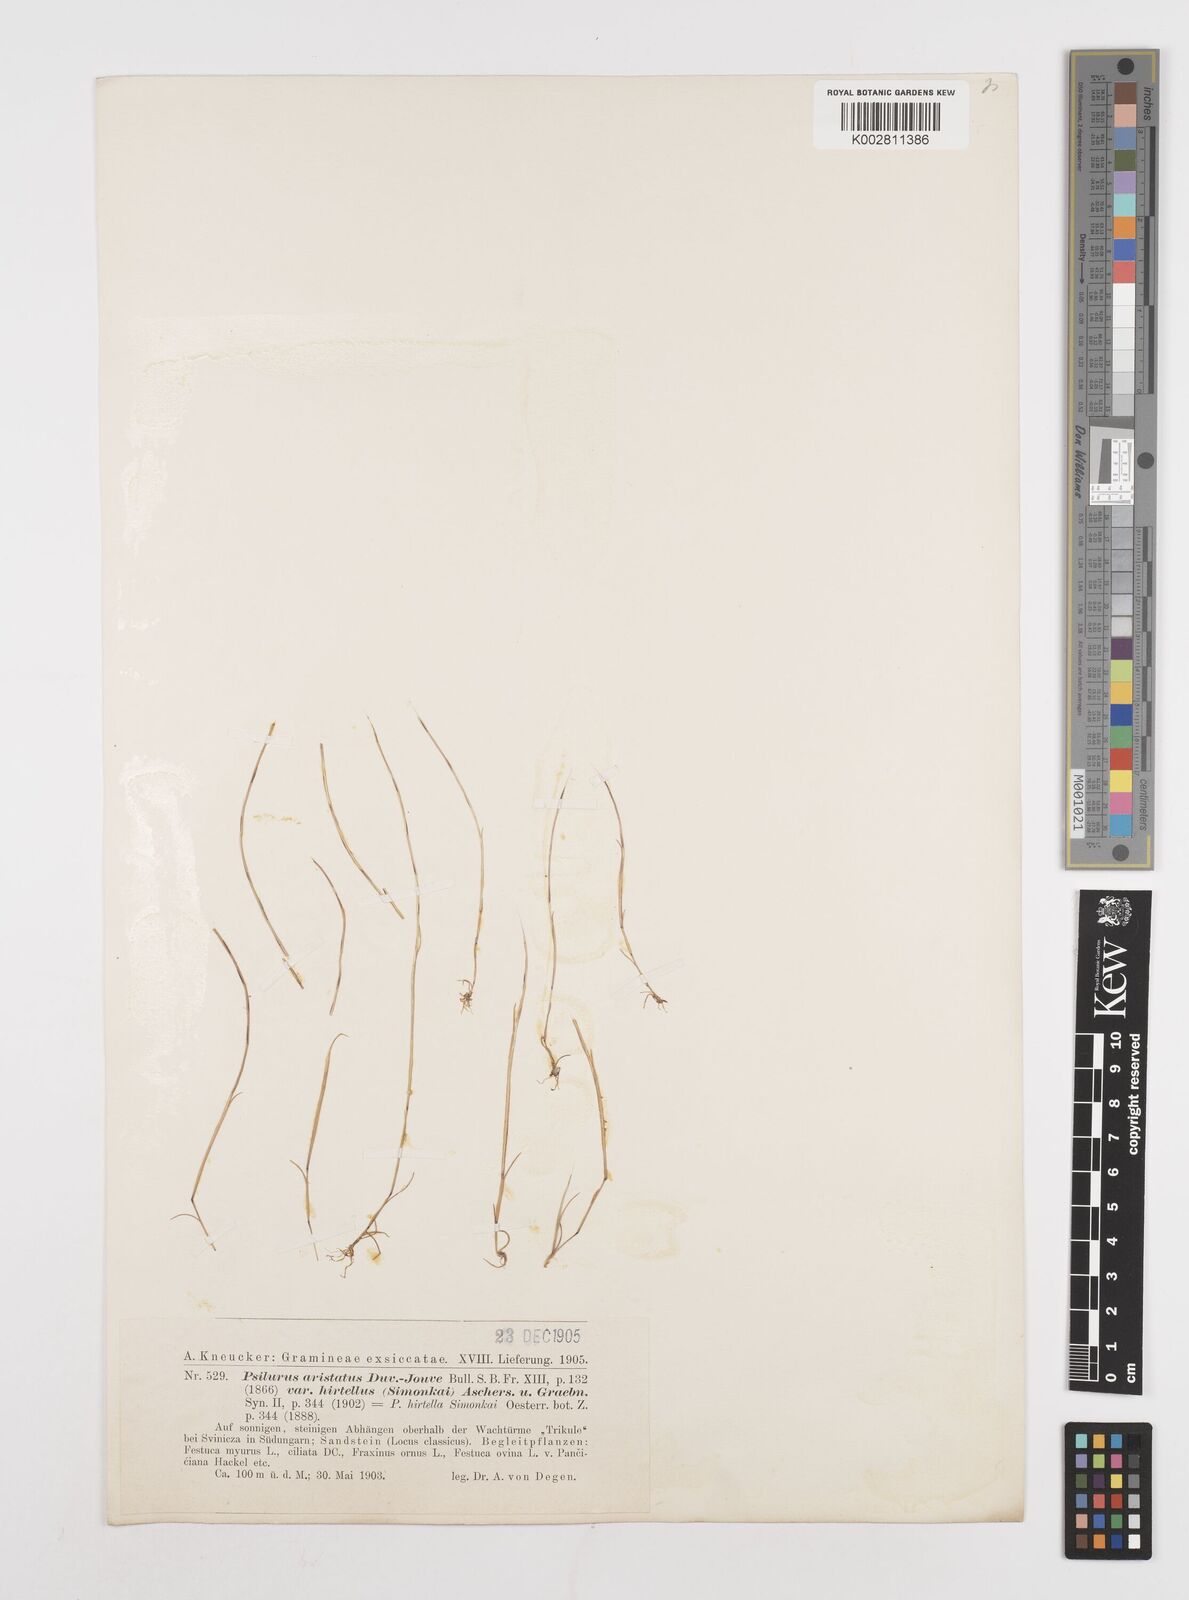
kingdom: Plantae
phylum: Tracheophyta
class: Liliopsida
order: Poales
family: Poaceae
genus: Festuca
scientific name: Festuca incurva
